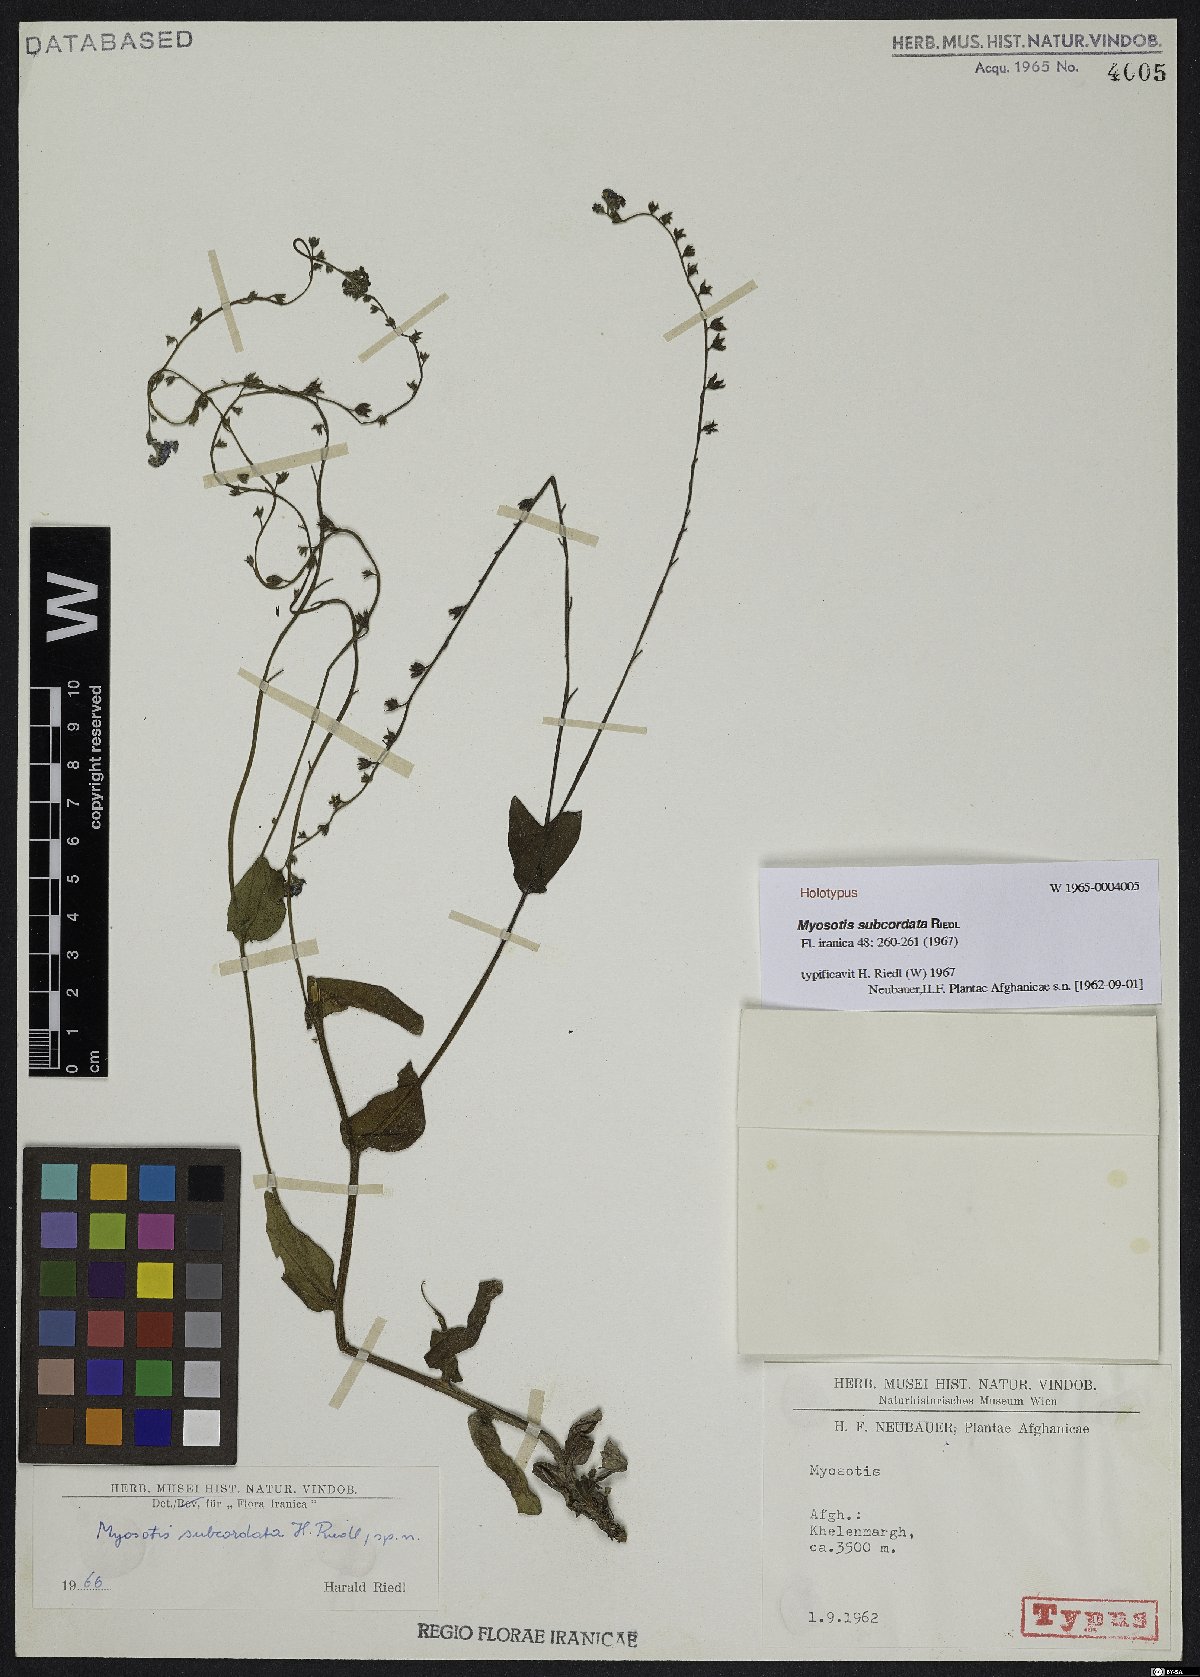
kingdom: Plantae
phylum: Tracheophyta
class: Magnoliopsida
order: Boraginales
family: Boraginaceae
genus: Myosotis
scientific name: Myosotis subcordata
